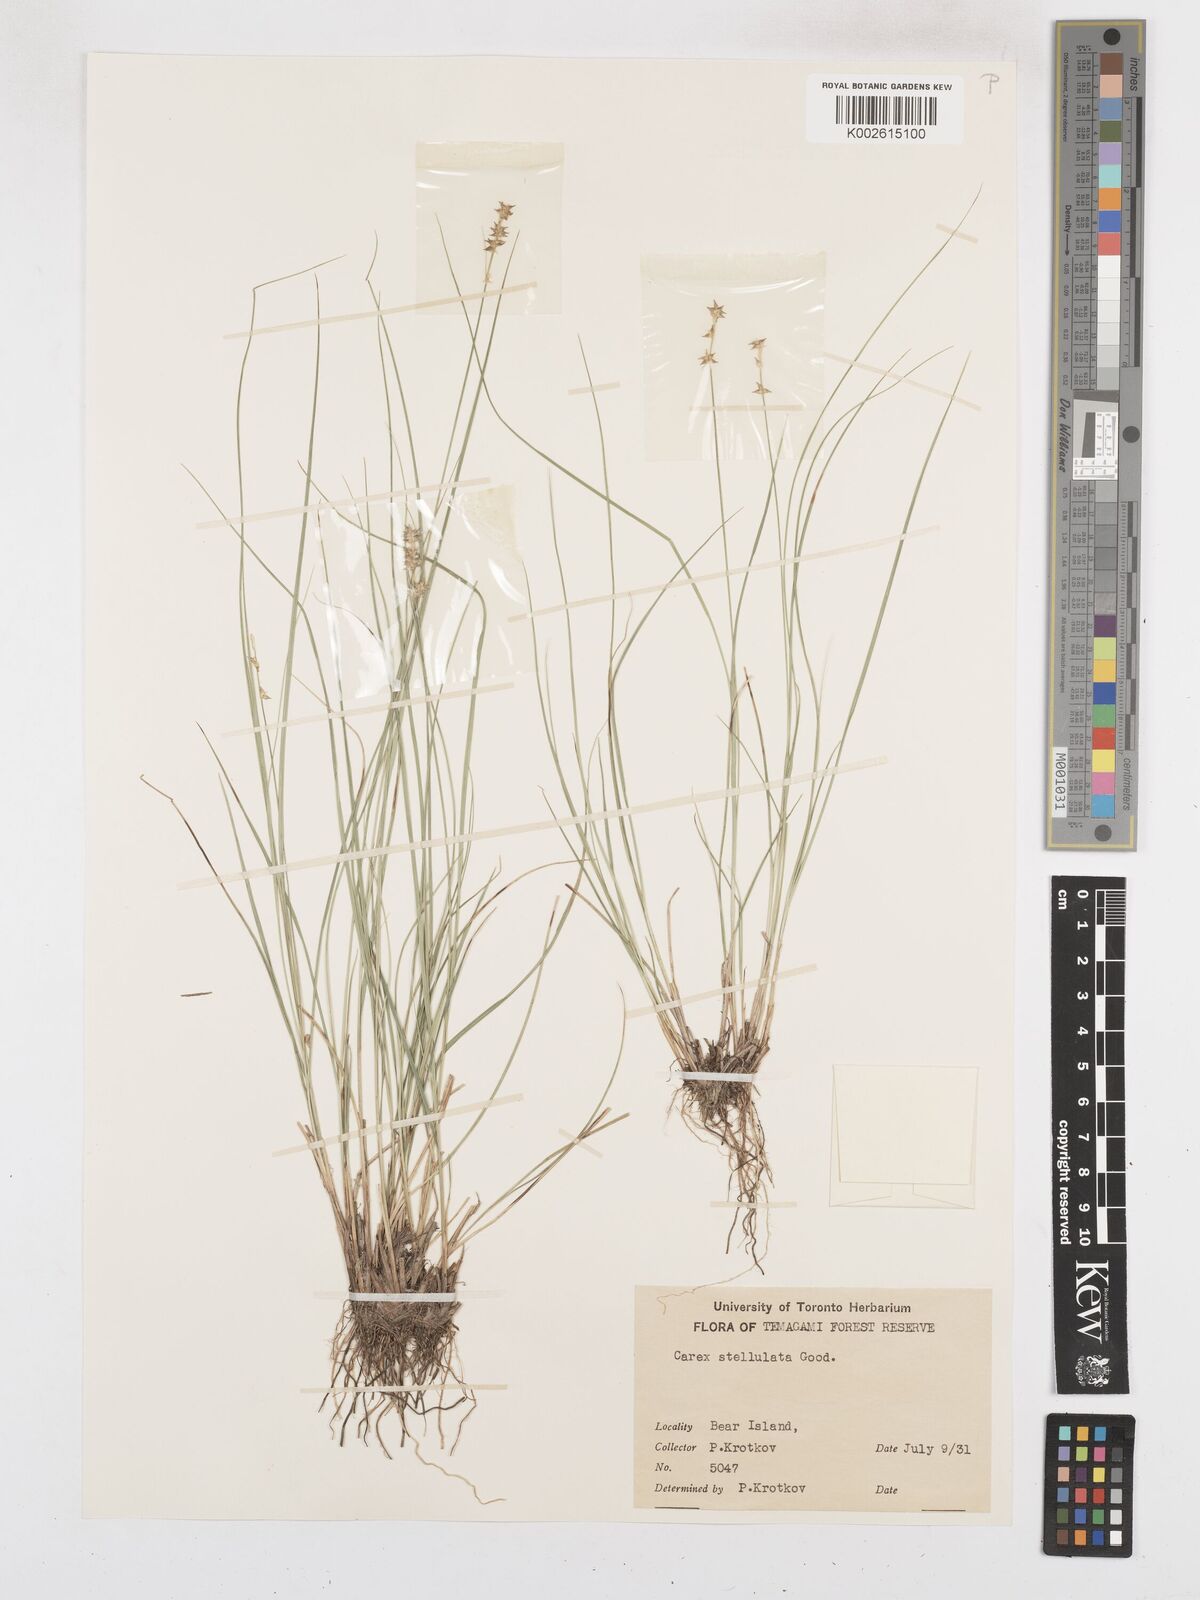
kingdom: Plantae
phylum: Tracheophyta
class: Liliopsida
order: Poales
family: Cyperaceae
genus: Carex
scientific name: Carex echinata
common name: Star sedge
